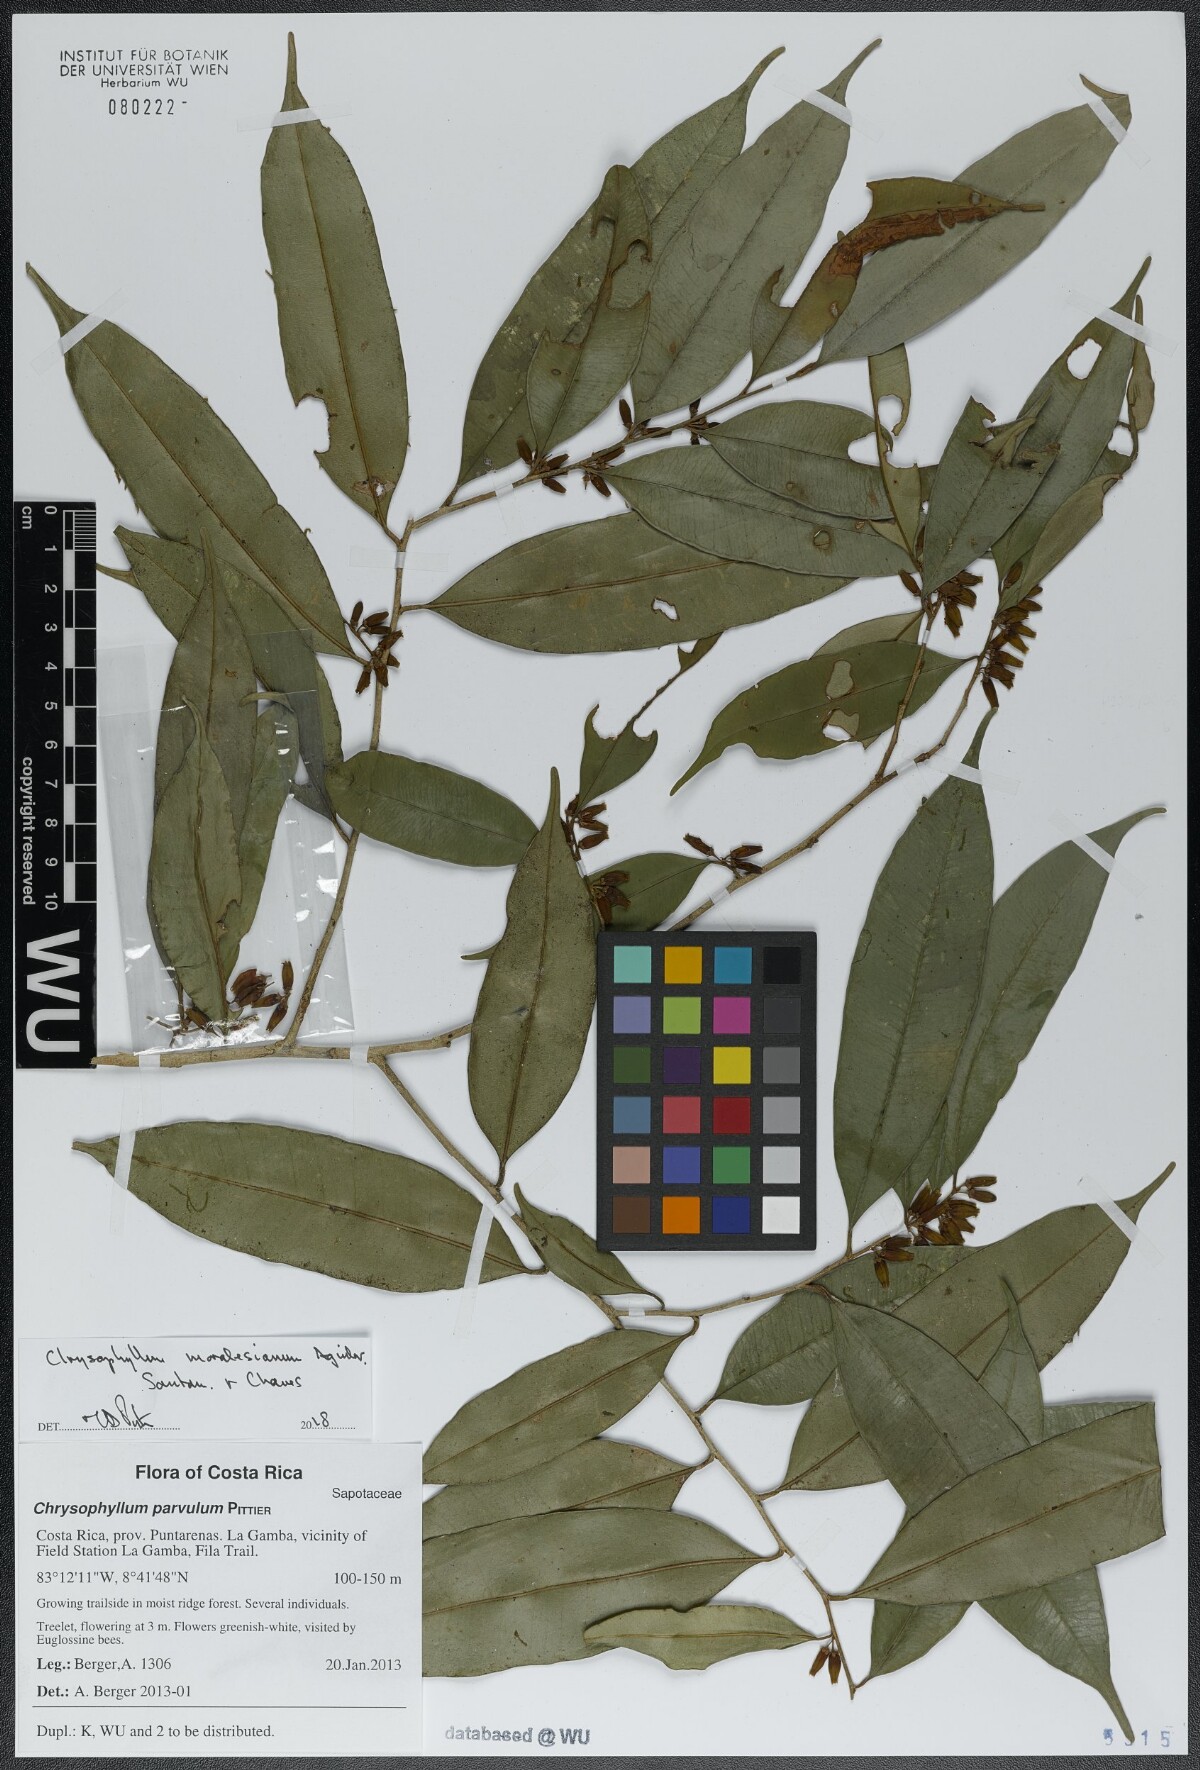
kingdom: Plantae
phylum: Tracheophyta
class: Magnoliopsida
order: Ericales
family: Sapotaceae
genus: Chrysophyllum
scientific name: Chrysophyllum moralesianum
